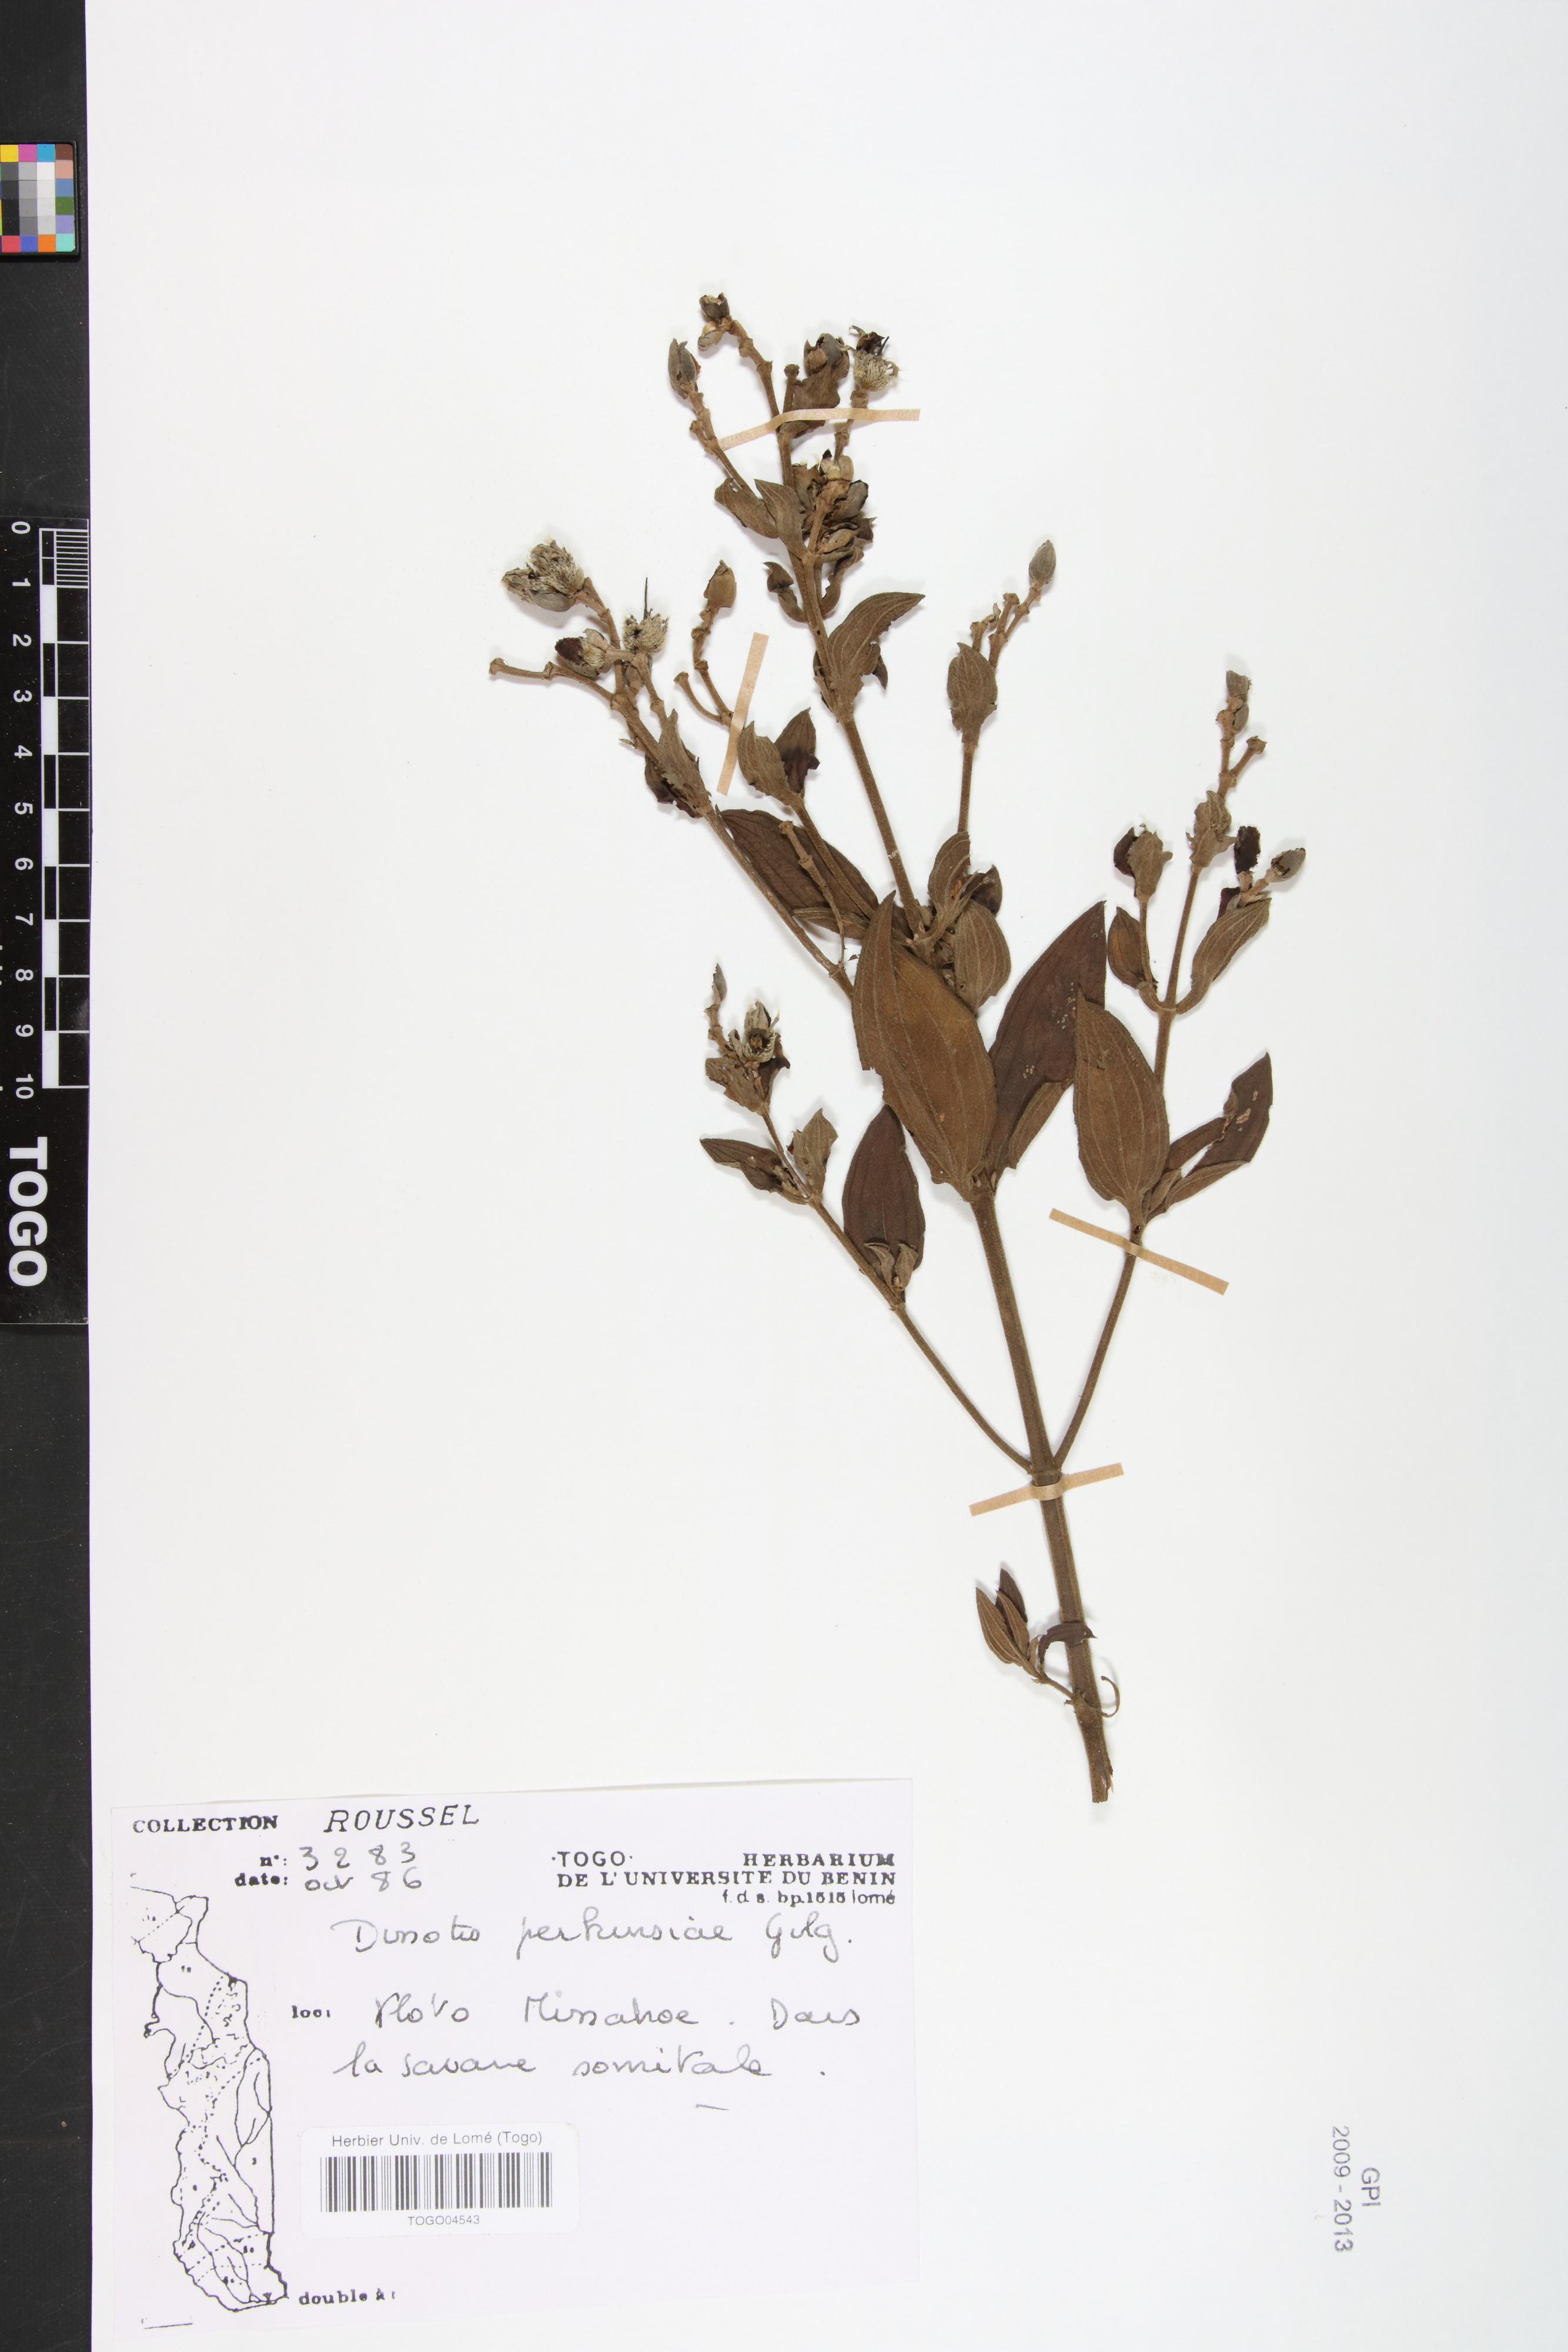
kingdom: Plantae
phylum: Tracheophyta
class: Magnoliopsida
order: Myrtales
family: Melastomataceae
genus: Feliciotis
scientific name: Feliciotis perkinsiae
